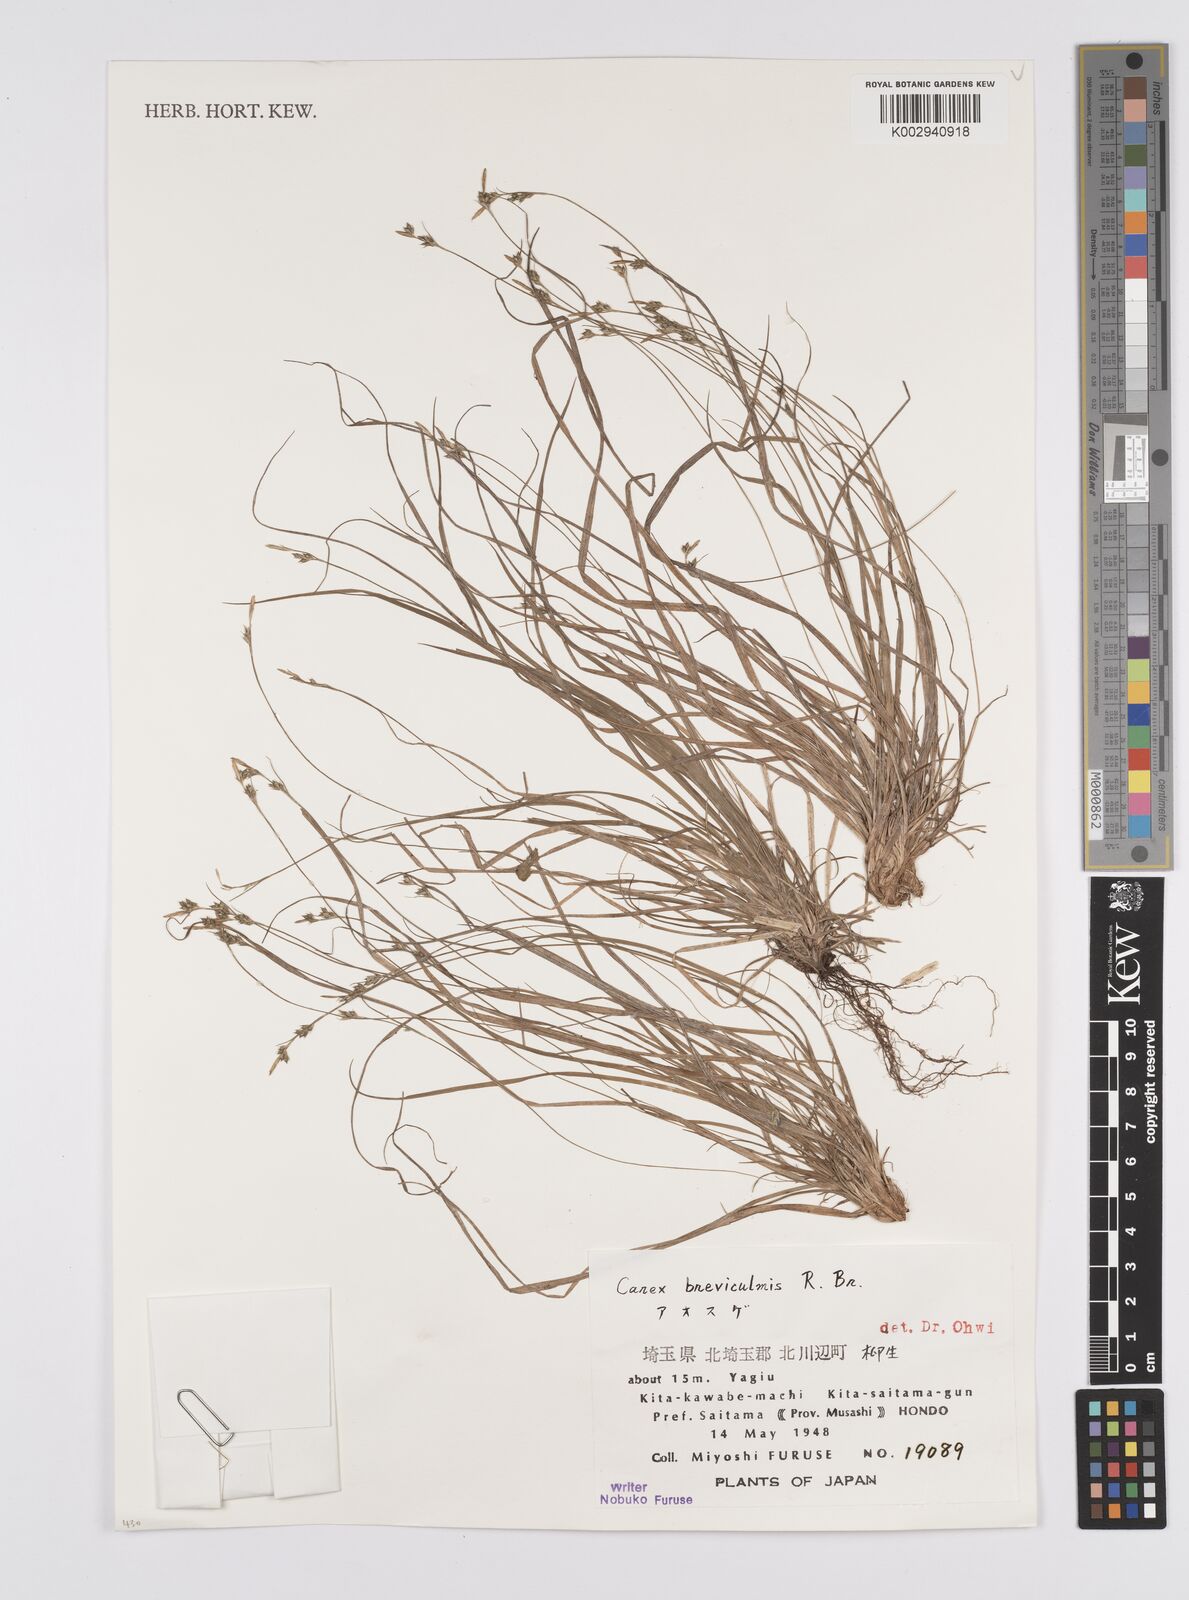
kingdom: Plantae
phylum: Tracheophyta
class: Liliopsida
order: Poales
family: Cyperaceae
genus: Carex
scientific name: Carex breviculmis
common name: Asian shortstem sedge
